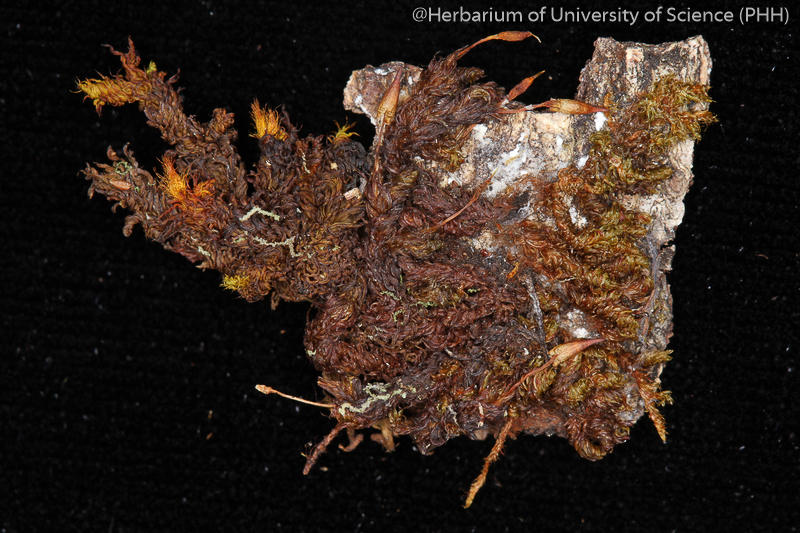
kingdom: Plantae
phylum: Bryophyta
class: Bryopsida
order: Orthotrichales
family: Orthotrichaceae
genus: Schlotheimia
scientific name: Schlotheimia ferruginea
